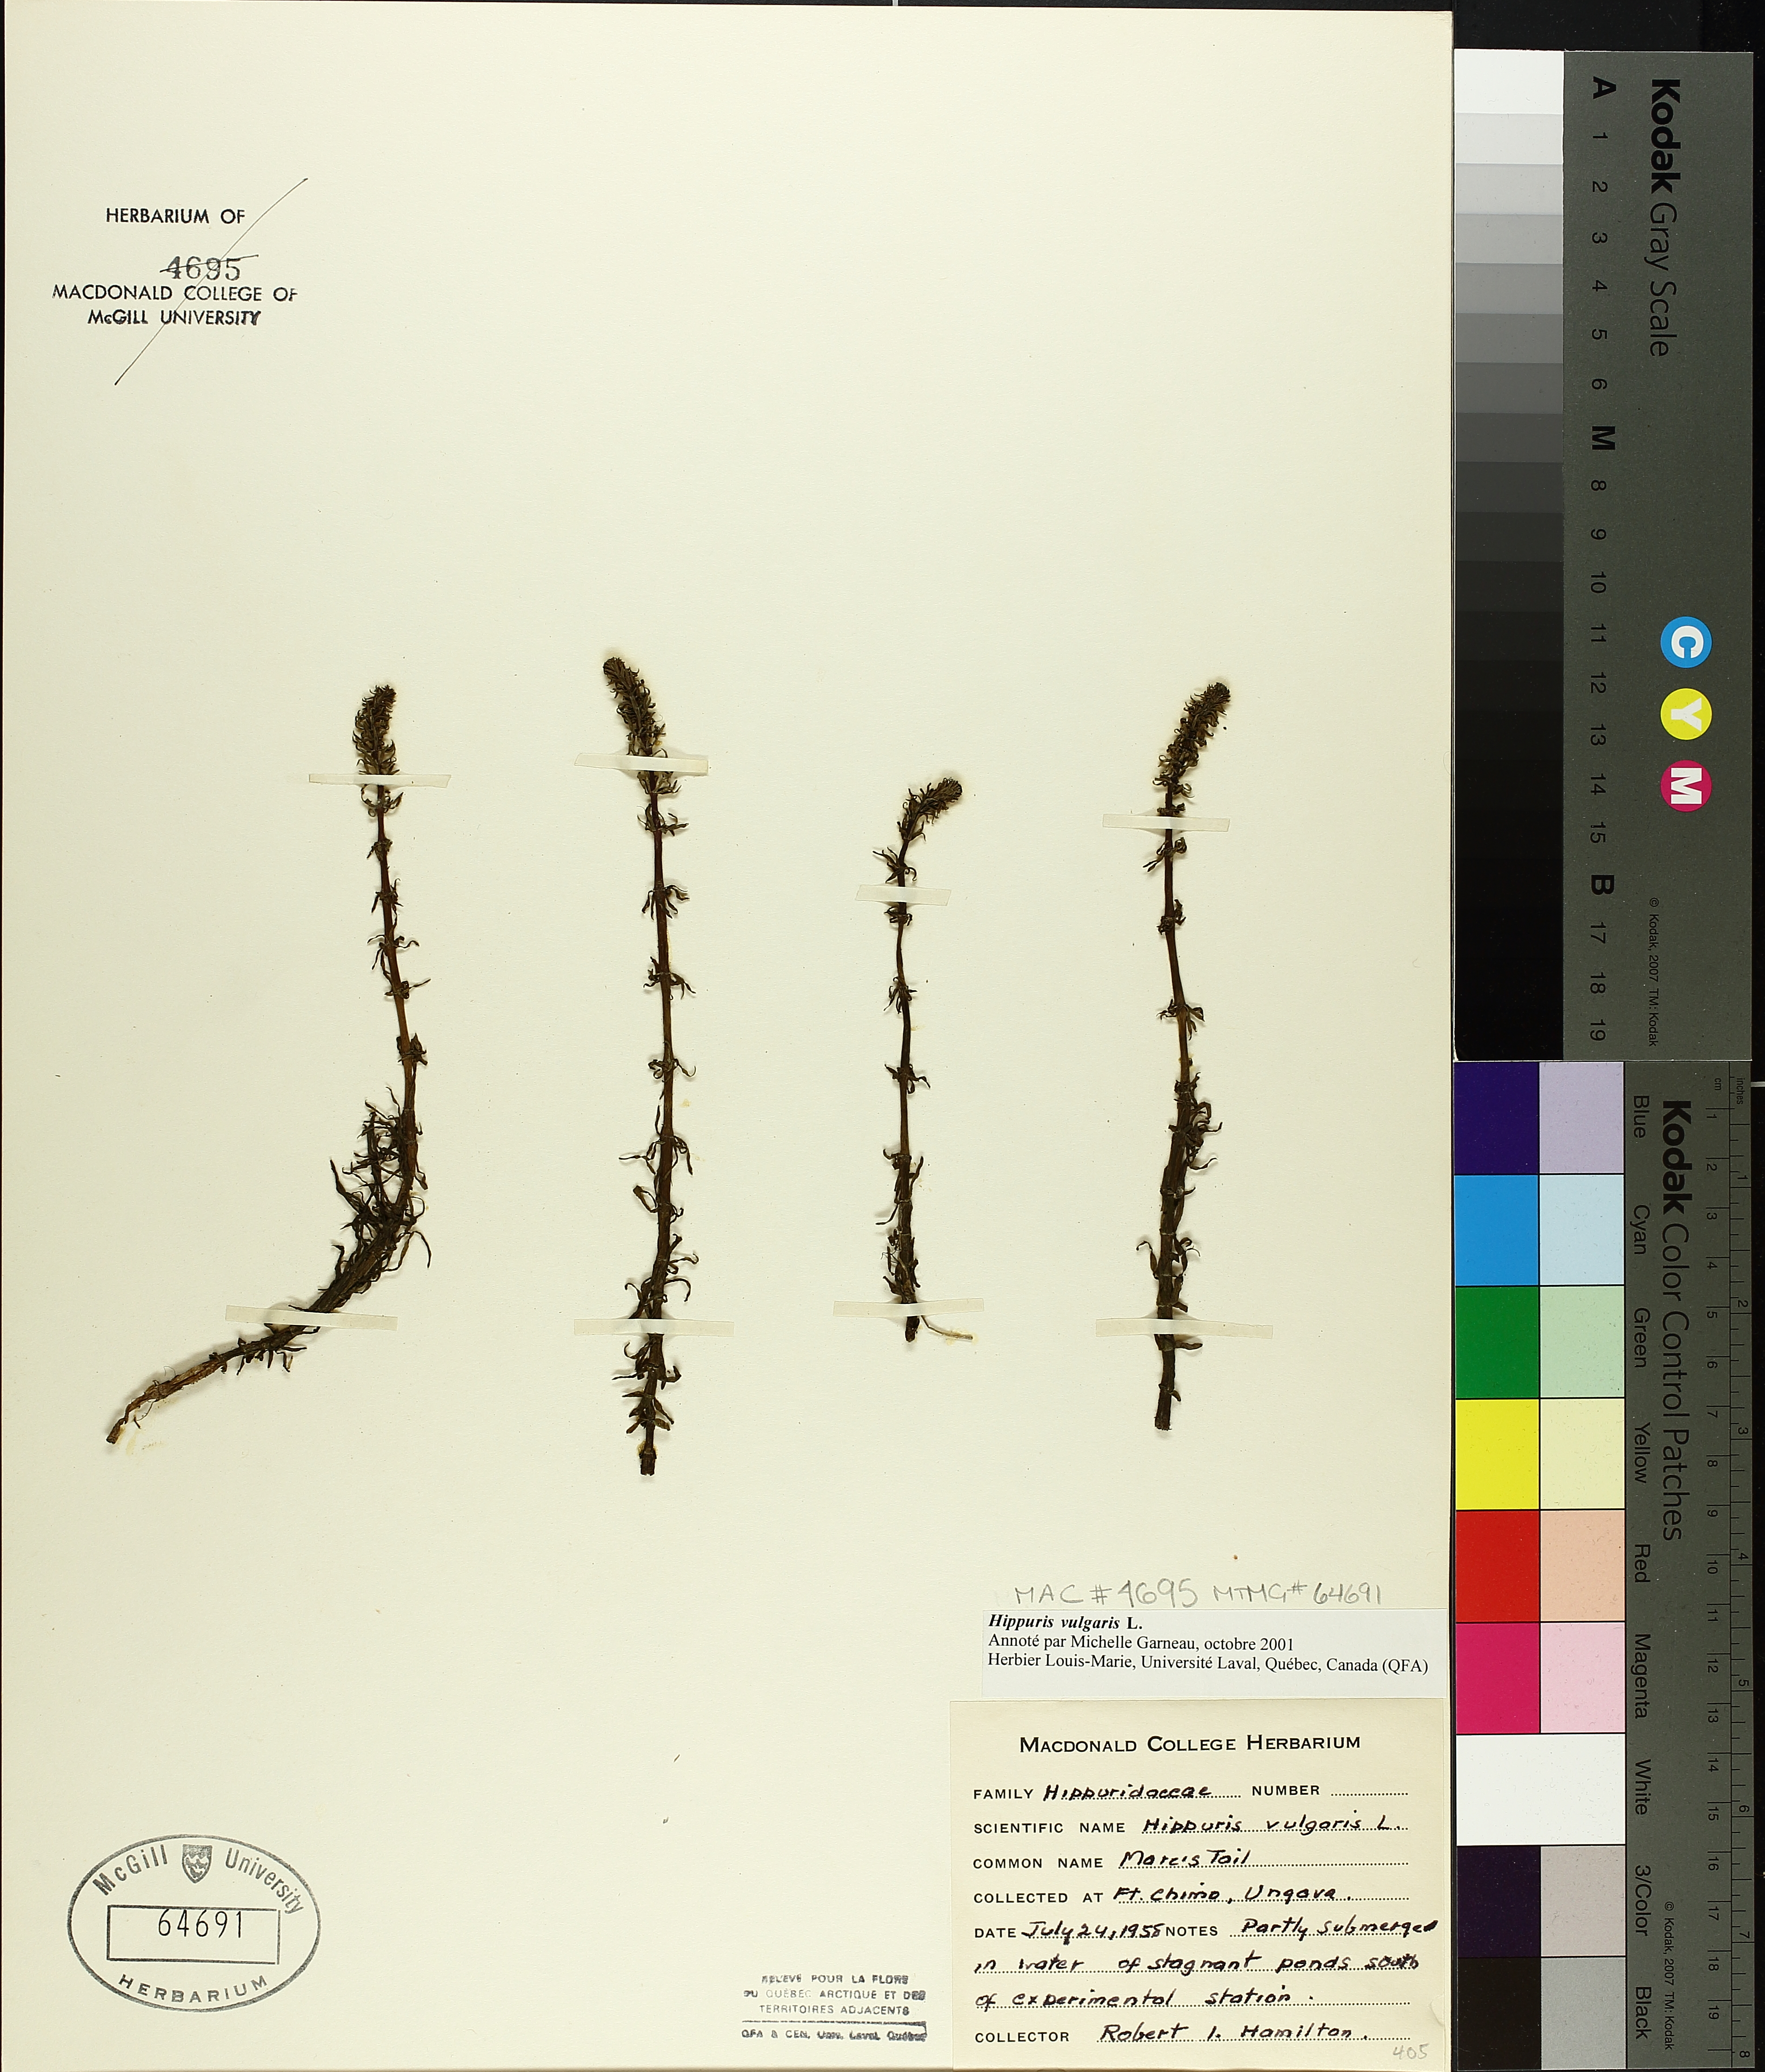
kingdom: Plantae
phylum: Tracheophyta
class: Magnoliopsida
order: Lamiales
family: Plantaginaceae
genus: Hippuris
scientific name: Hippuris vulgaris
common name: Mare's-tail
